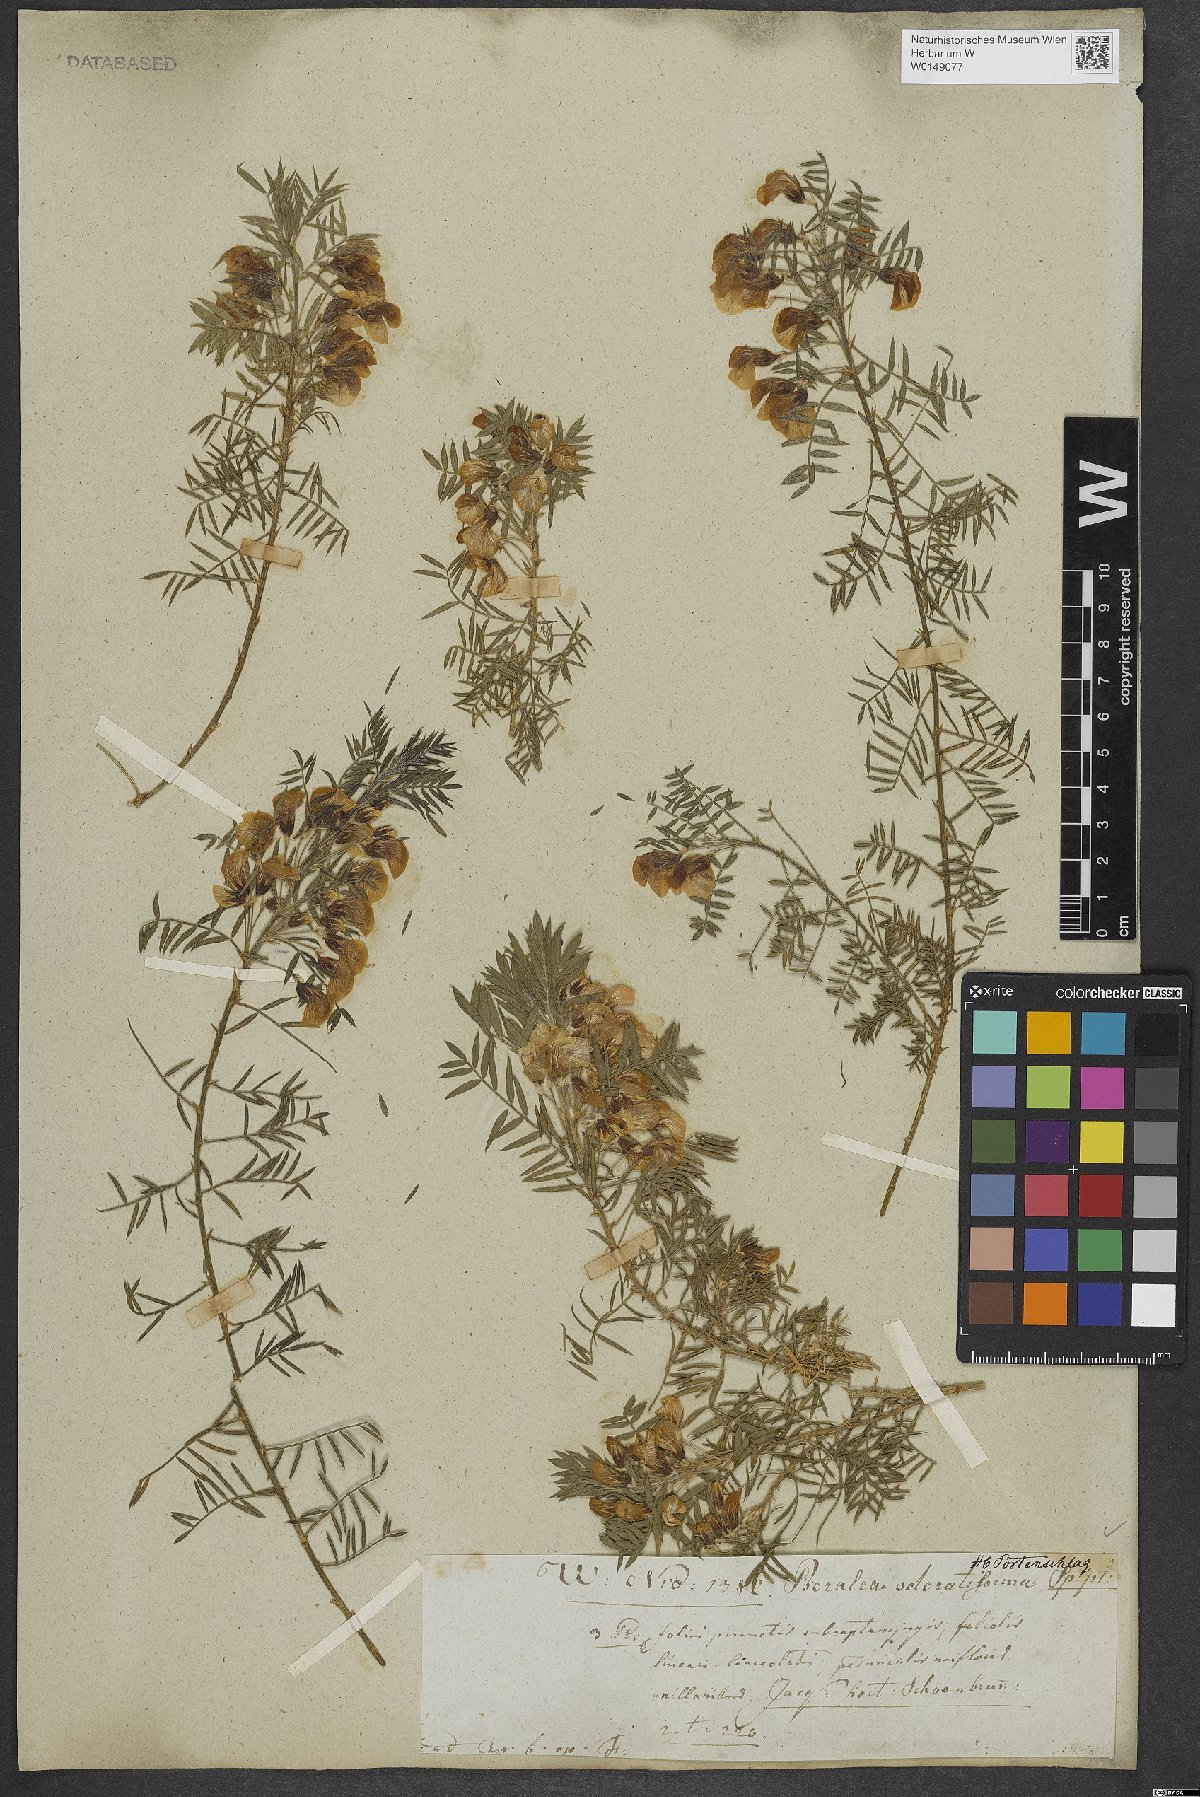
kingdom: Plantae
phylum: Tracheophyta
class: Magnoliopsida
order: Fabales
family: Fabaceae
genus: Psoralea
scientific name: Psoralea odoratissima
